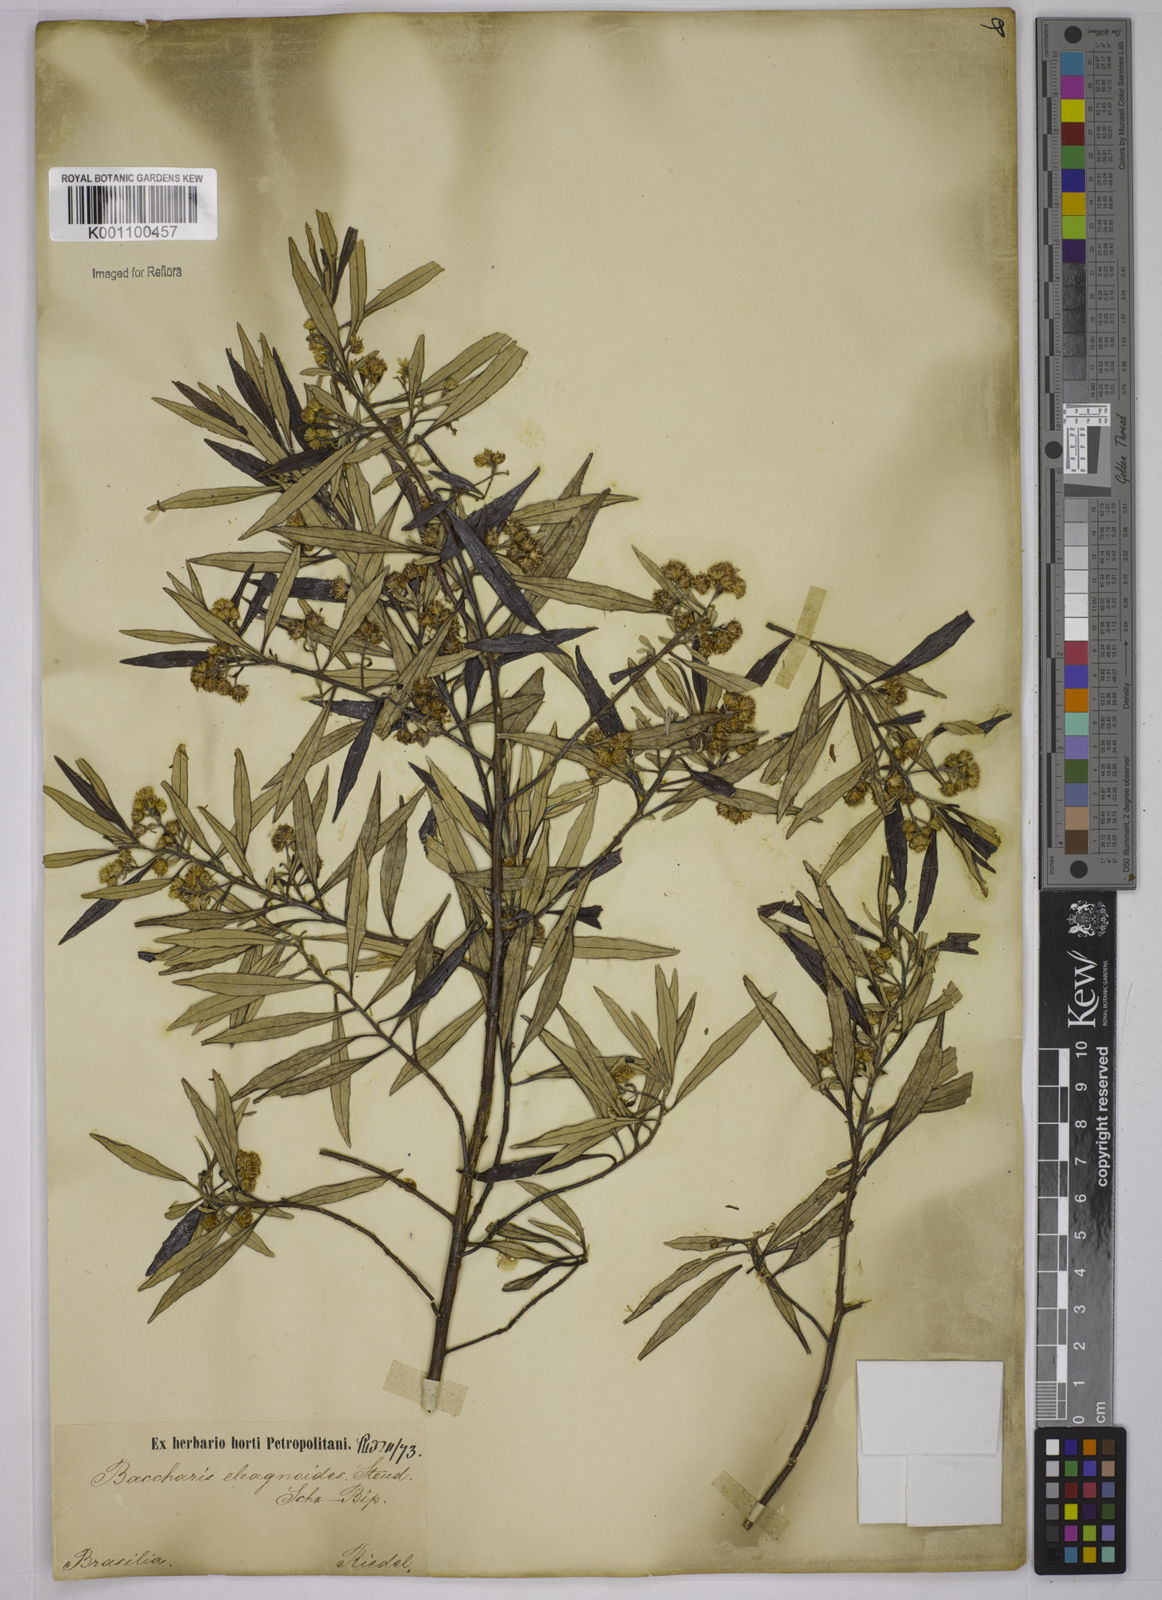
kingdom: Plantae
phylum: Tracheophyta
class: Magnoliopsida
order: Asterales
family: Asteraceae
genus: Baccharis
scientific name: Baccharis
